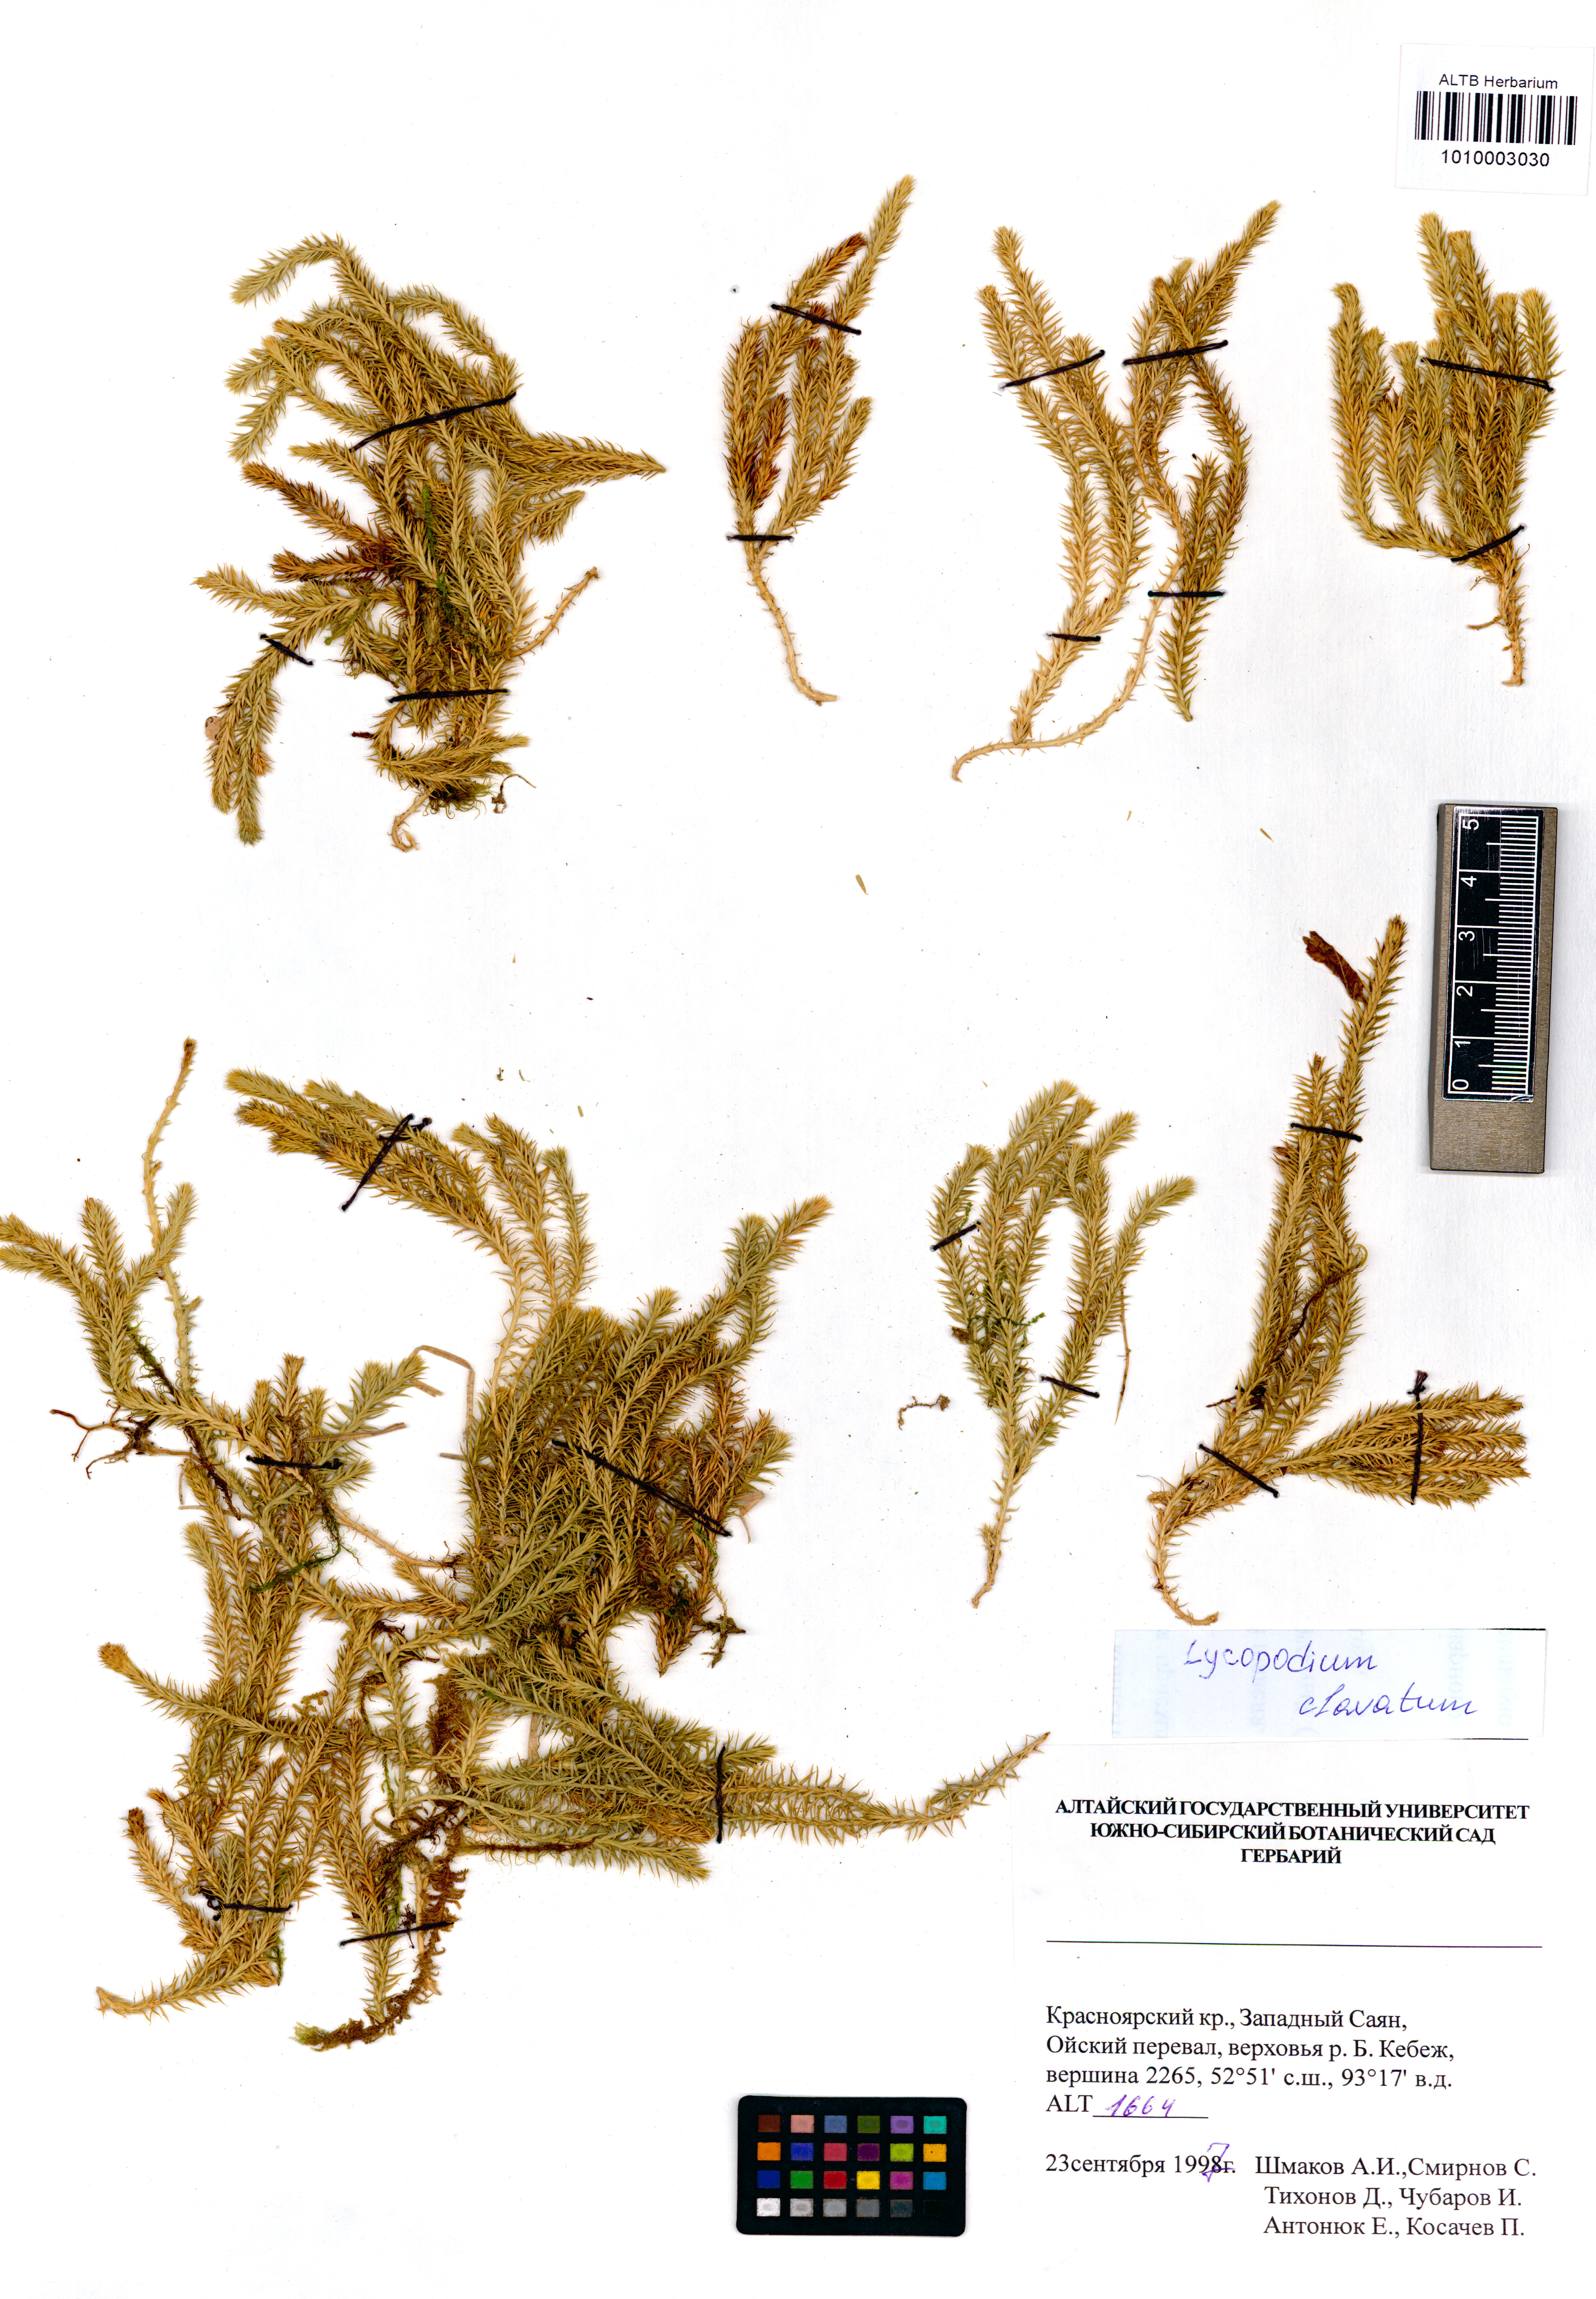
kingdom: Plantae
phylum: Tracheophyta
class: Polypodiopsida
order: Polypodiales
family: Cystopteridaceae
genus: Cystopteris
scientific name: Cystopteris fragilis
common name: Brittle bladder fern
